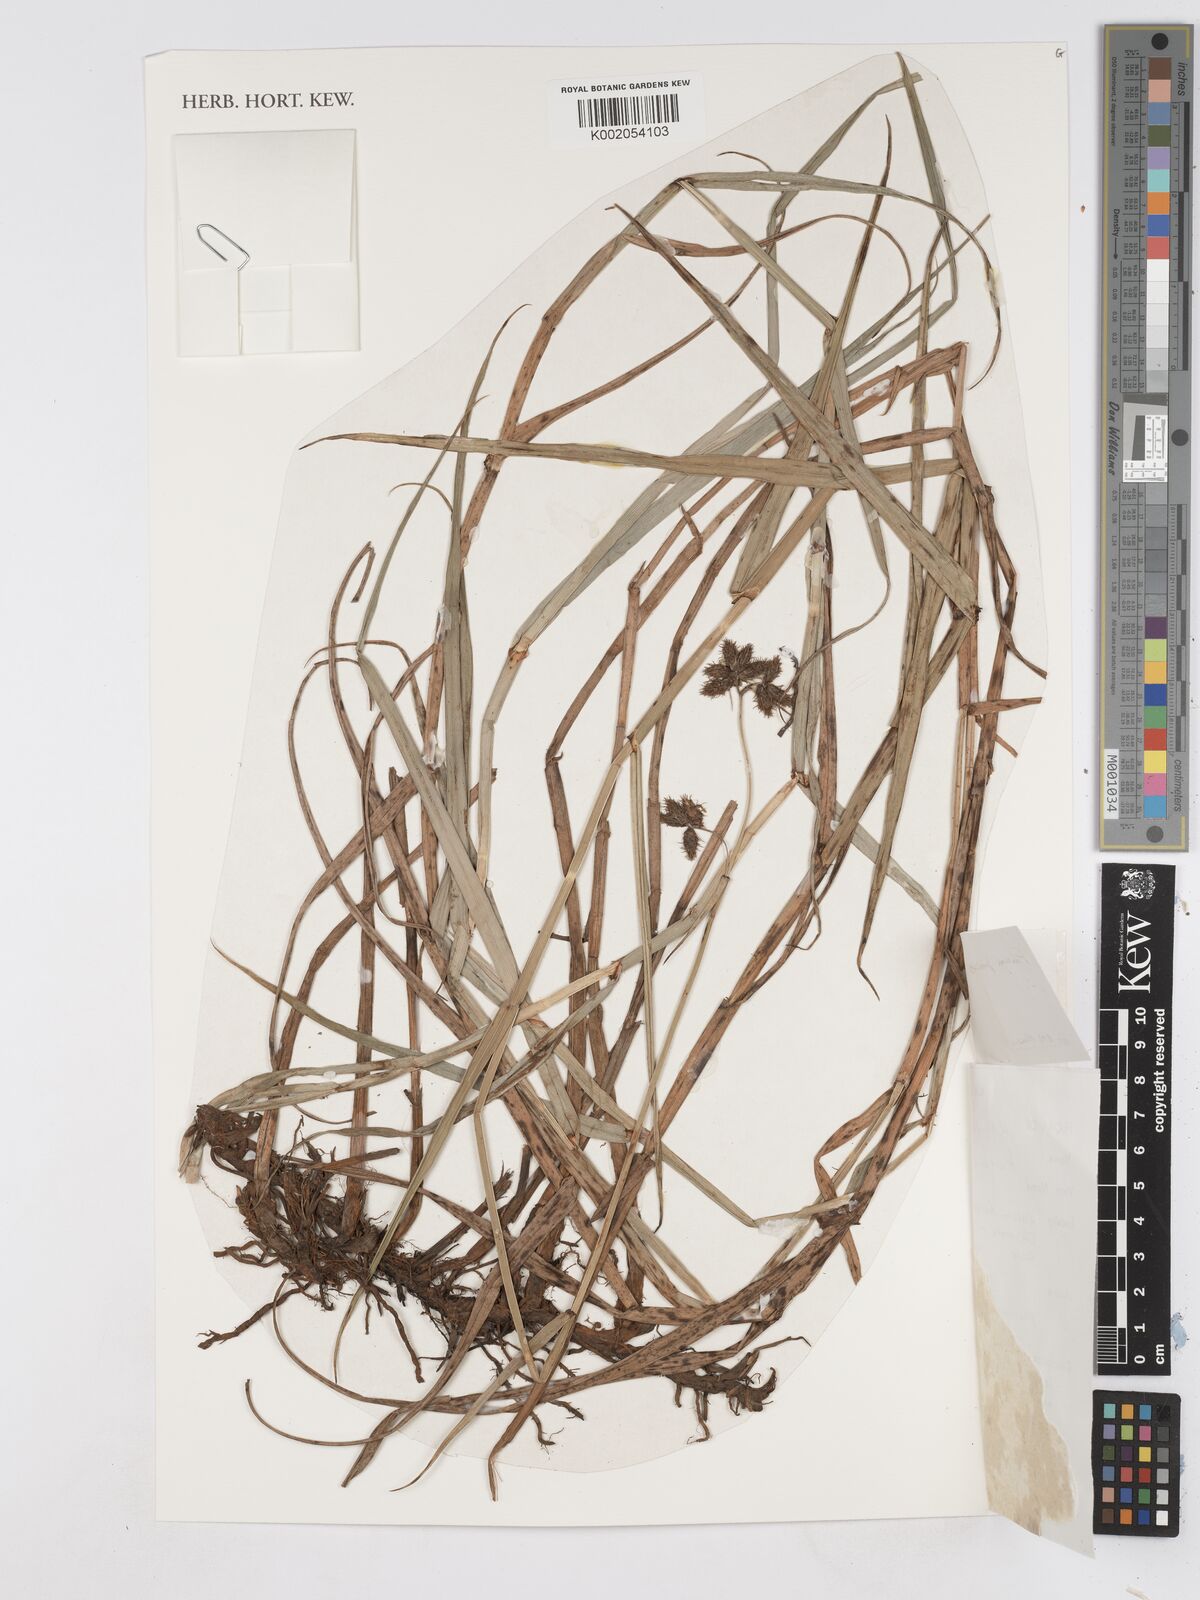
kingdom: Plantae
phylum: Tracheophyta
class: Liliopsida
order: Poales
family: Cyperaceae
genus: Fuirena
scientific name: Fuirena pubescens
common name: Hairy sedge
